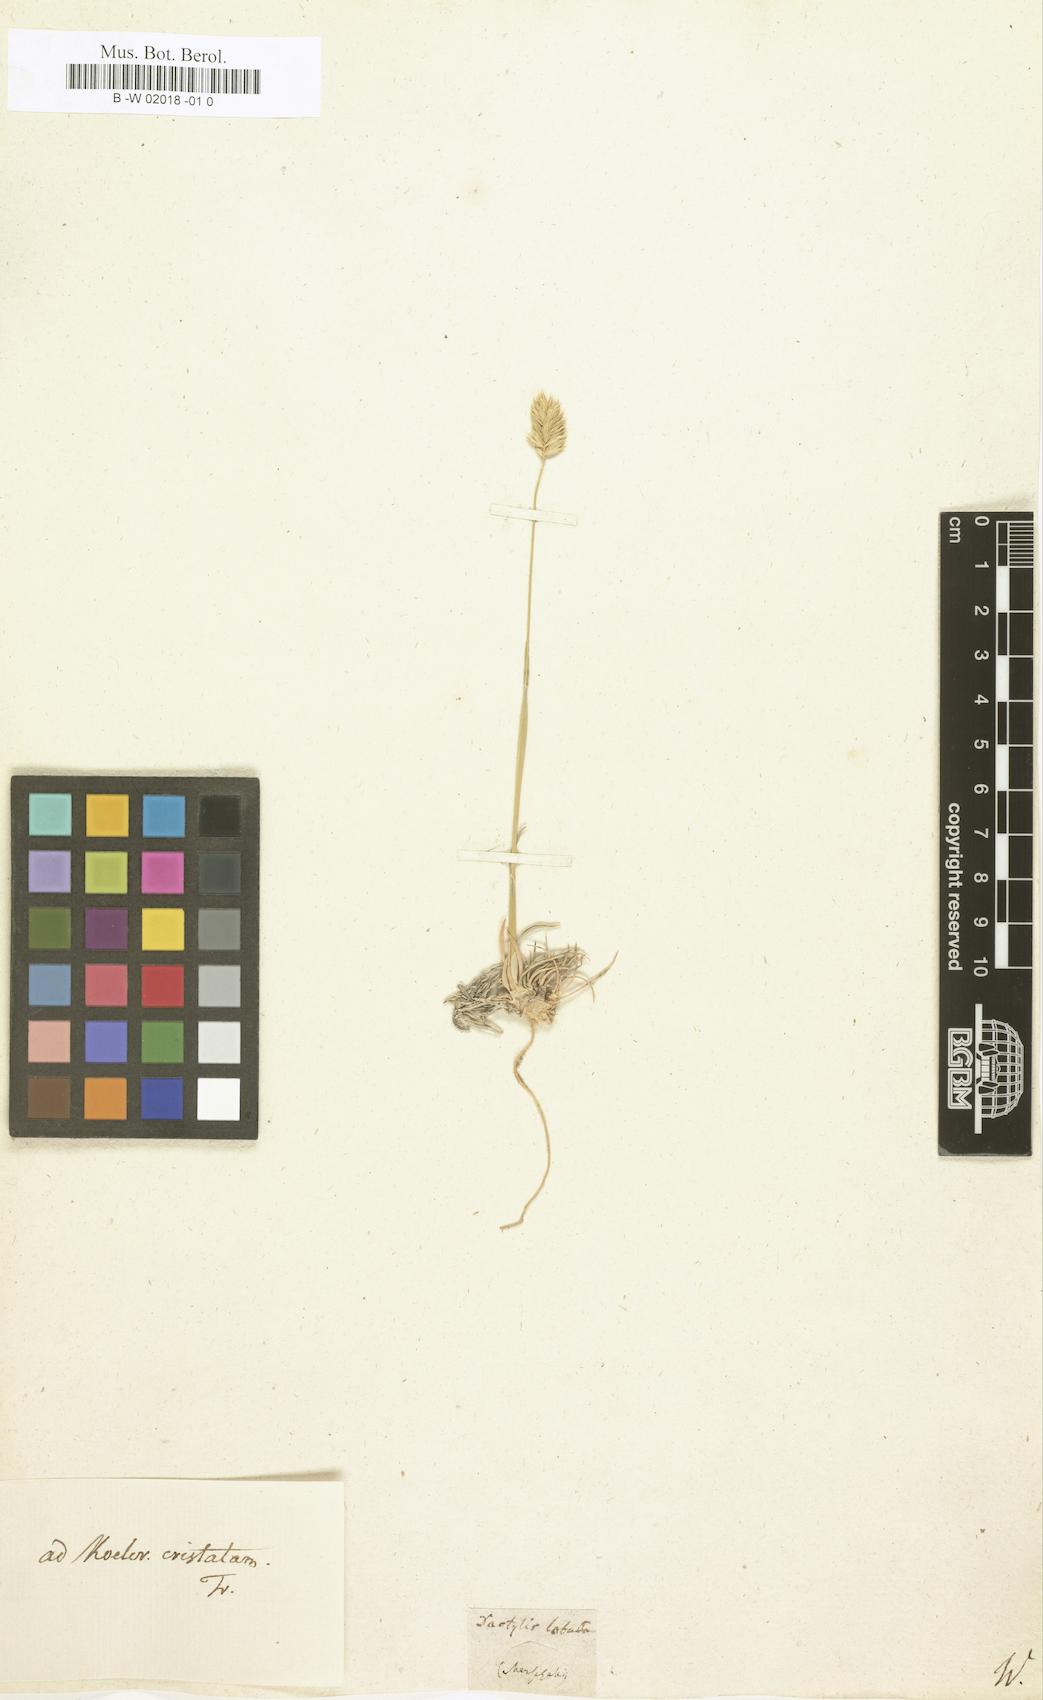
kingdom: Plantae
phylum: Tracheophyta
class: Liliopsida
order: Poales
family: Poaceae
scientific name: Poaceae
